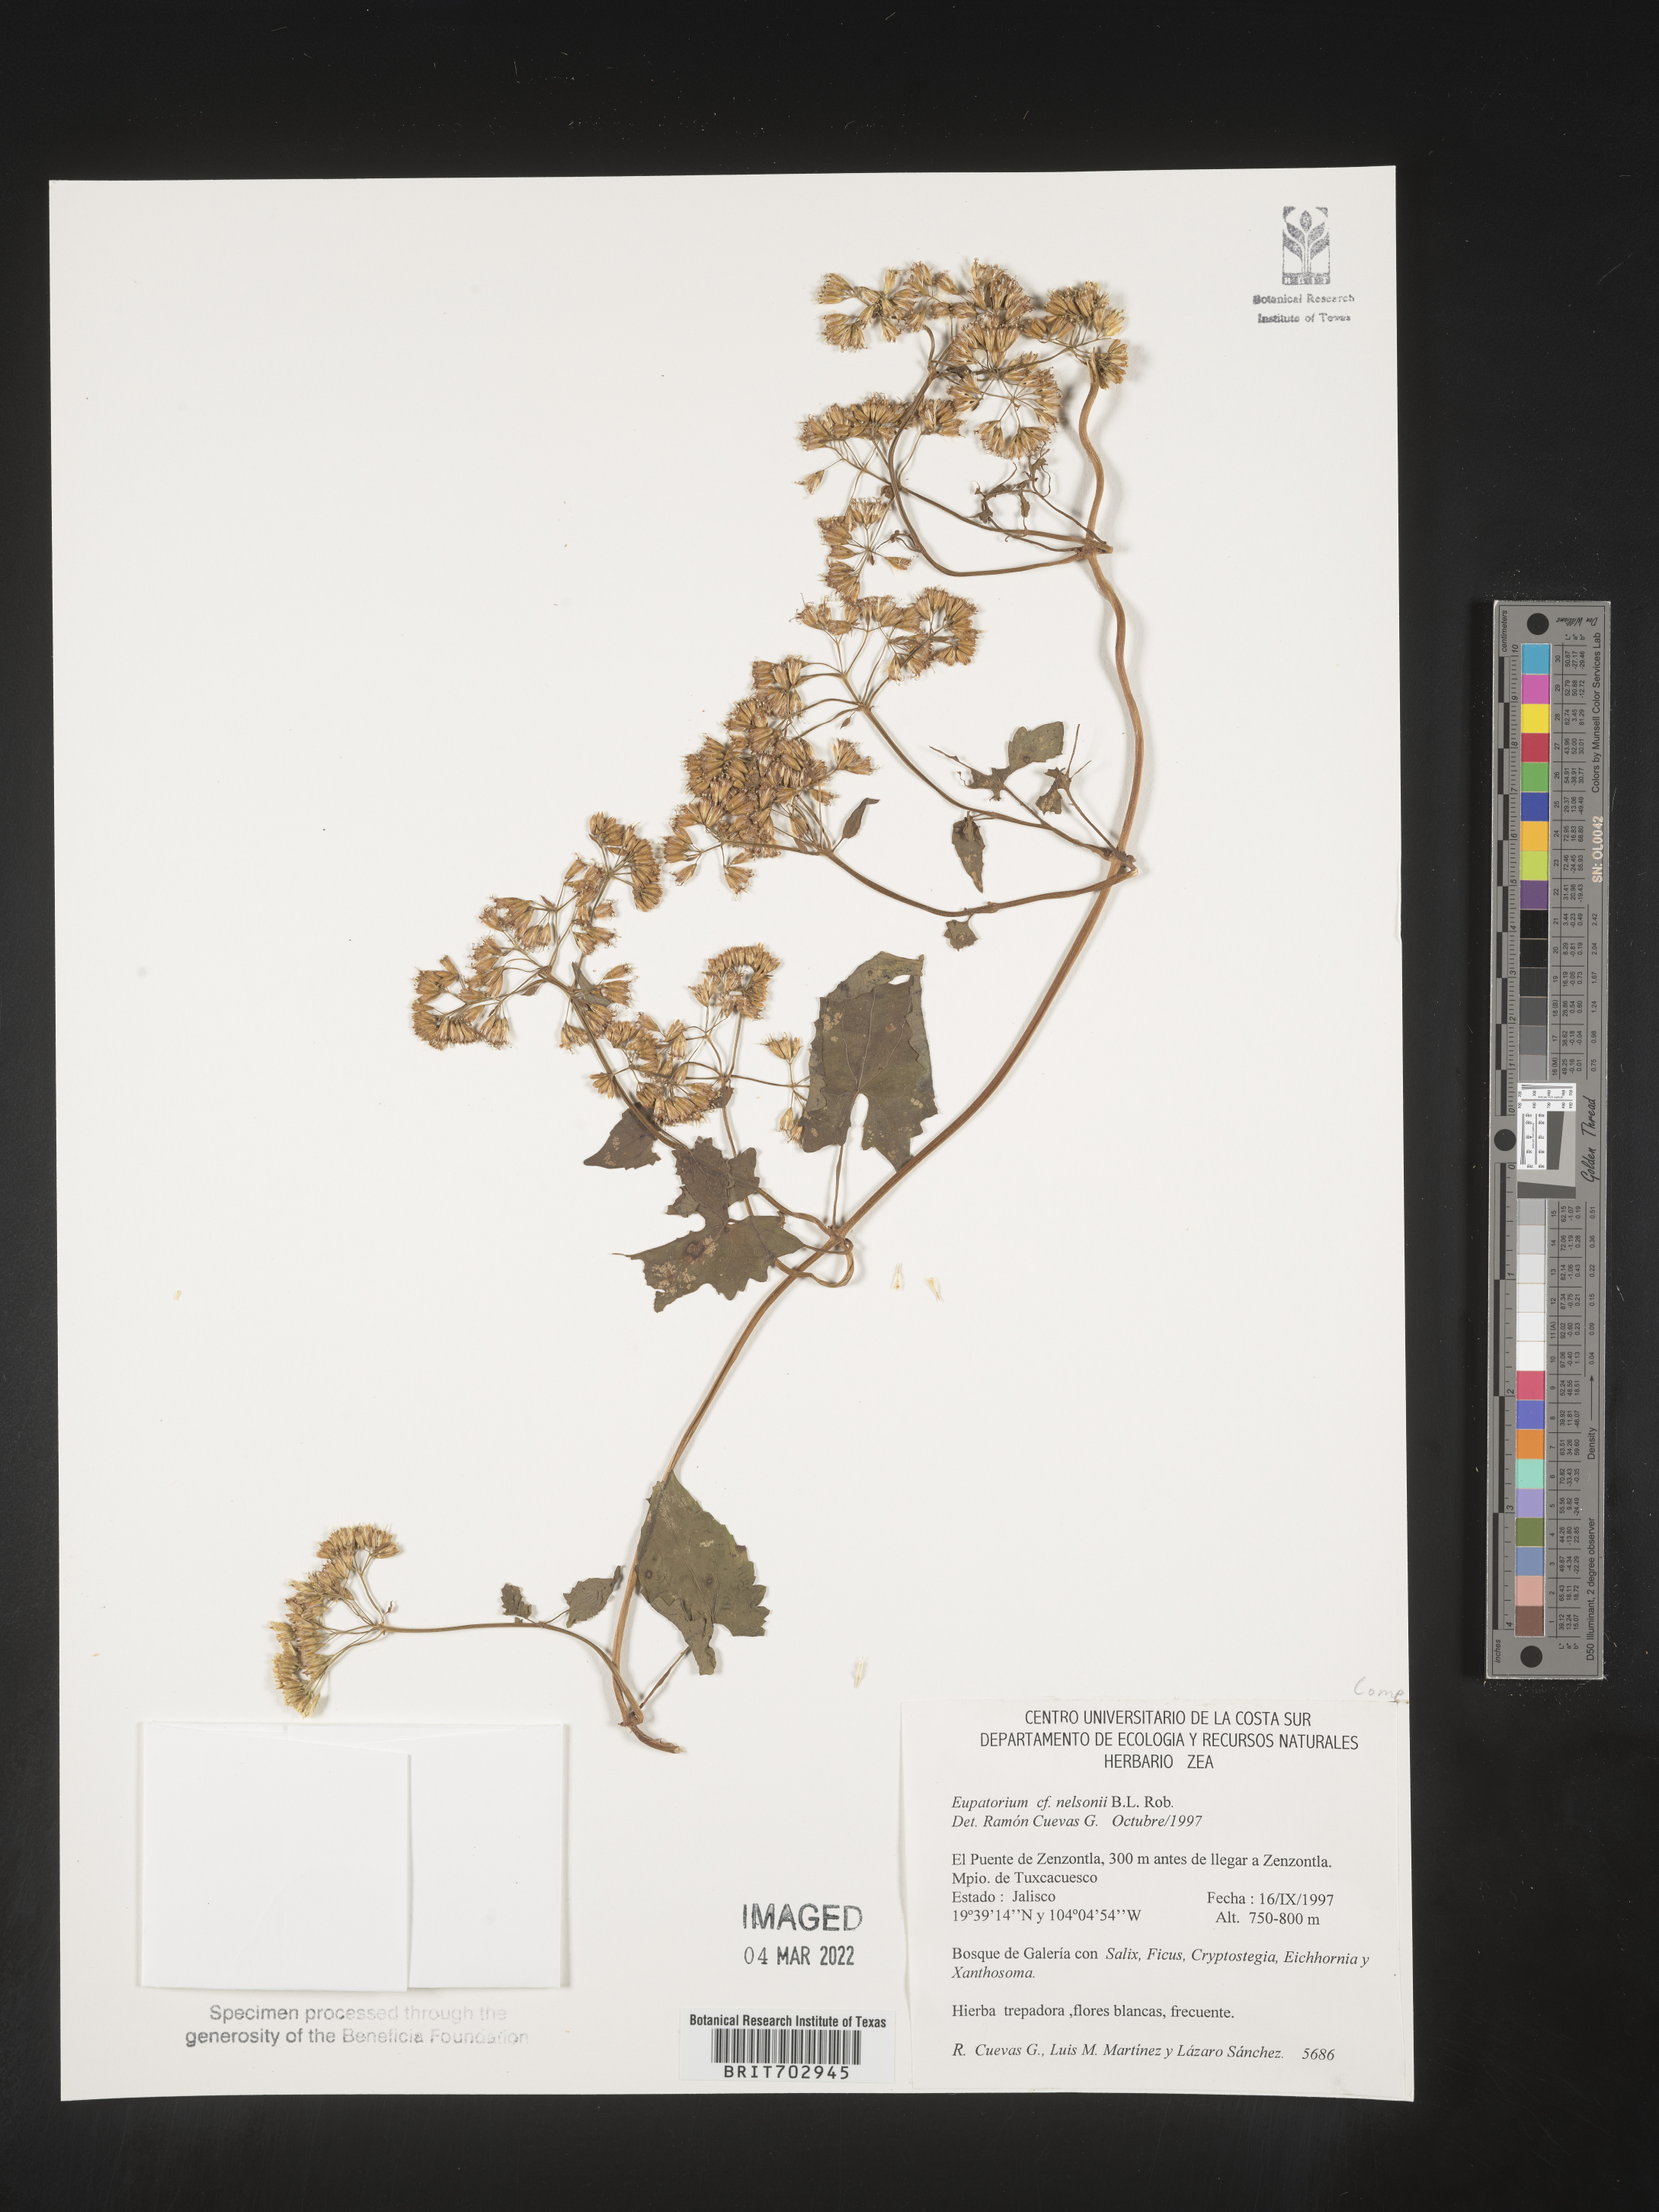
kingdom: Plantae
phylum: Tracheophyta
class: Magnoliopsida
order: Asterales
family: Asteraceae
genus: Eupatorium
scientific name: Eupatorium
